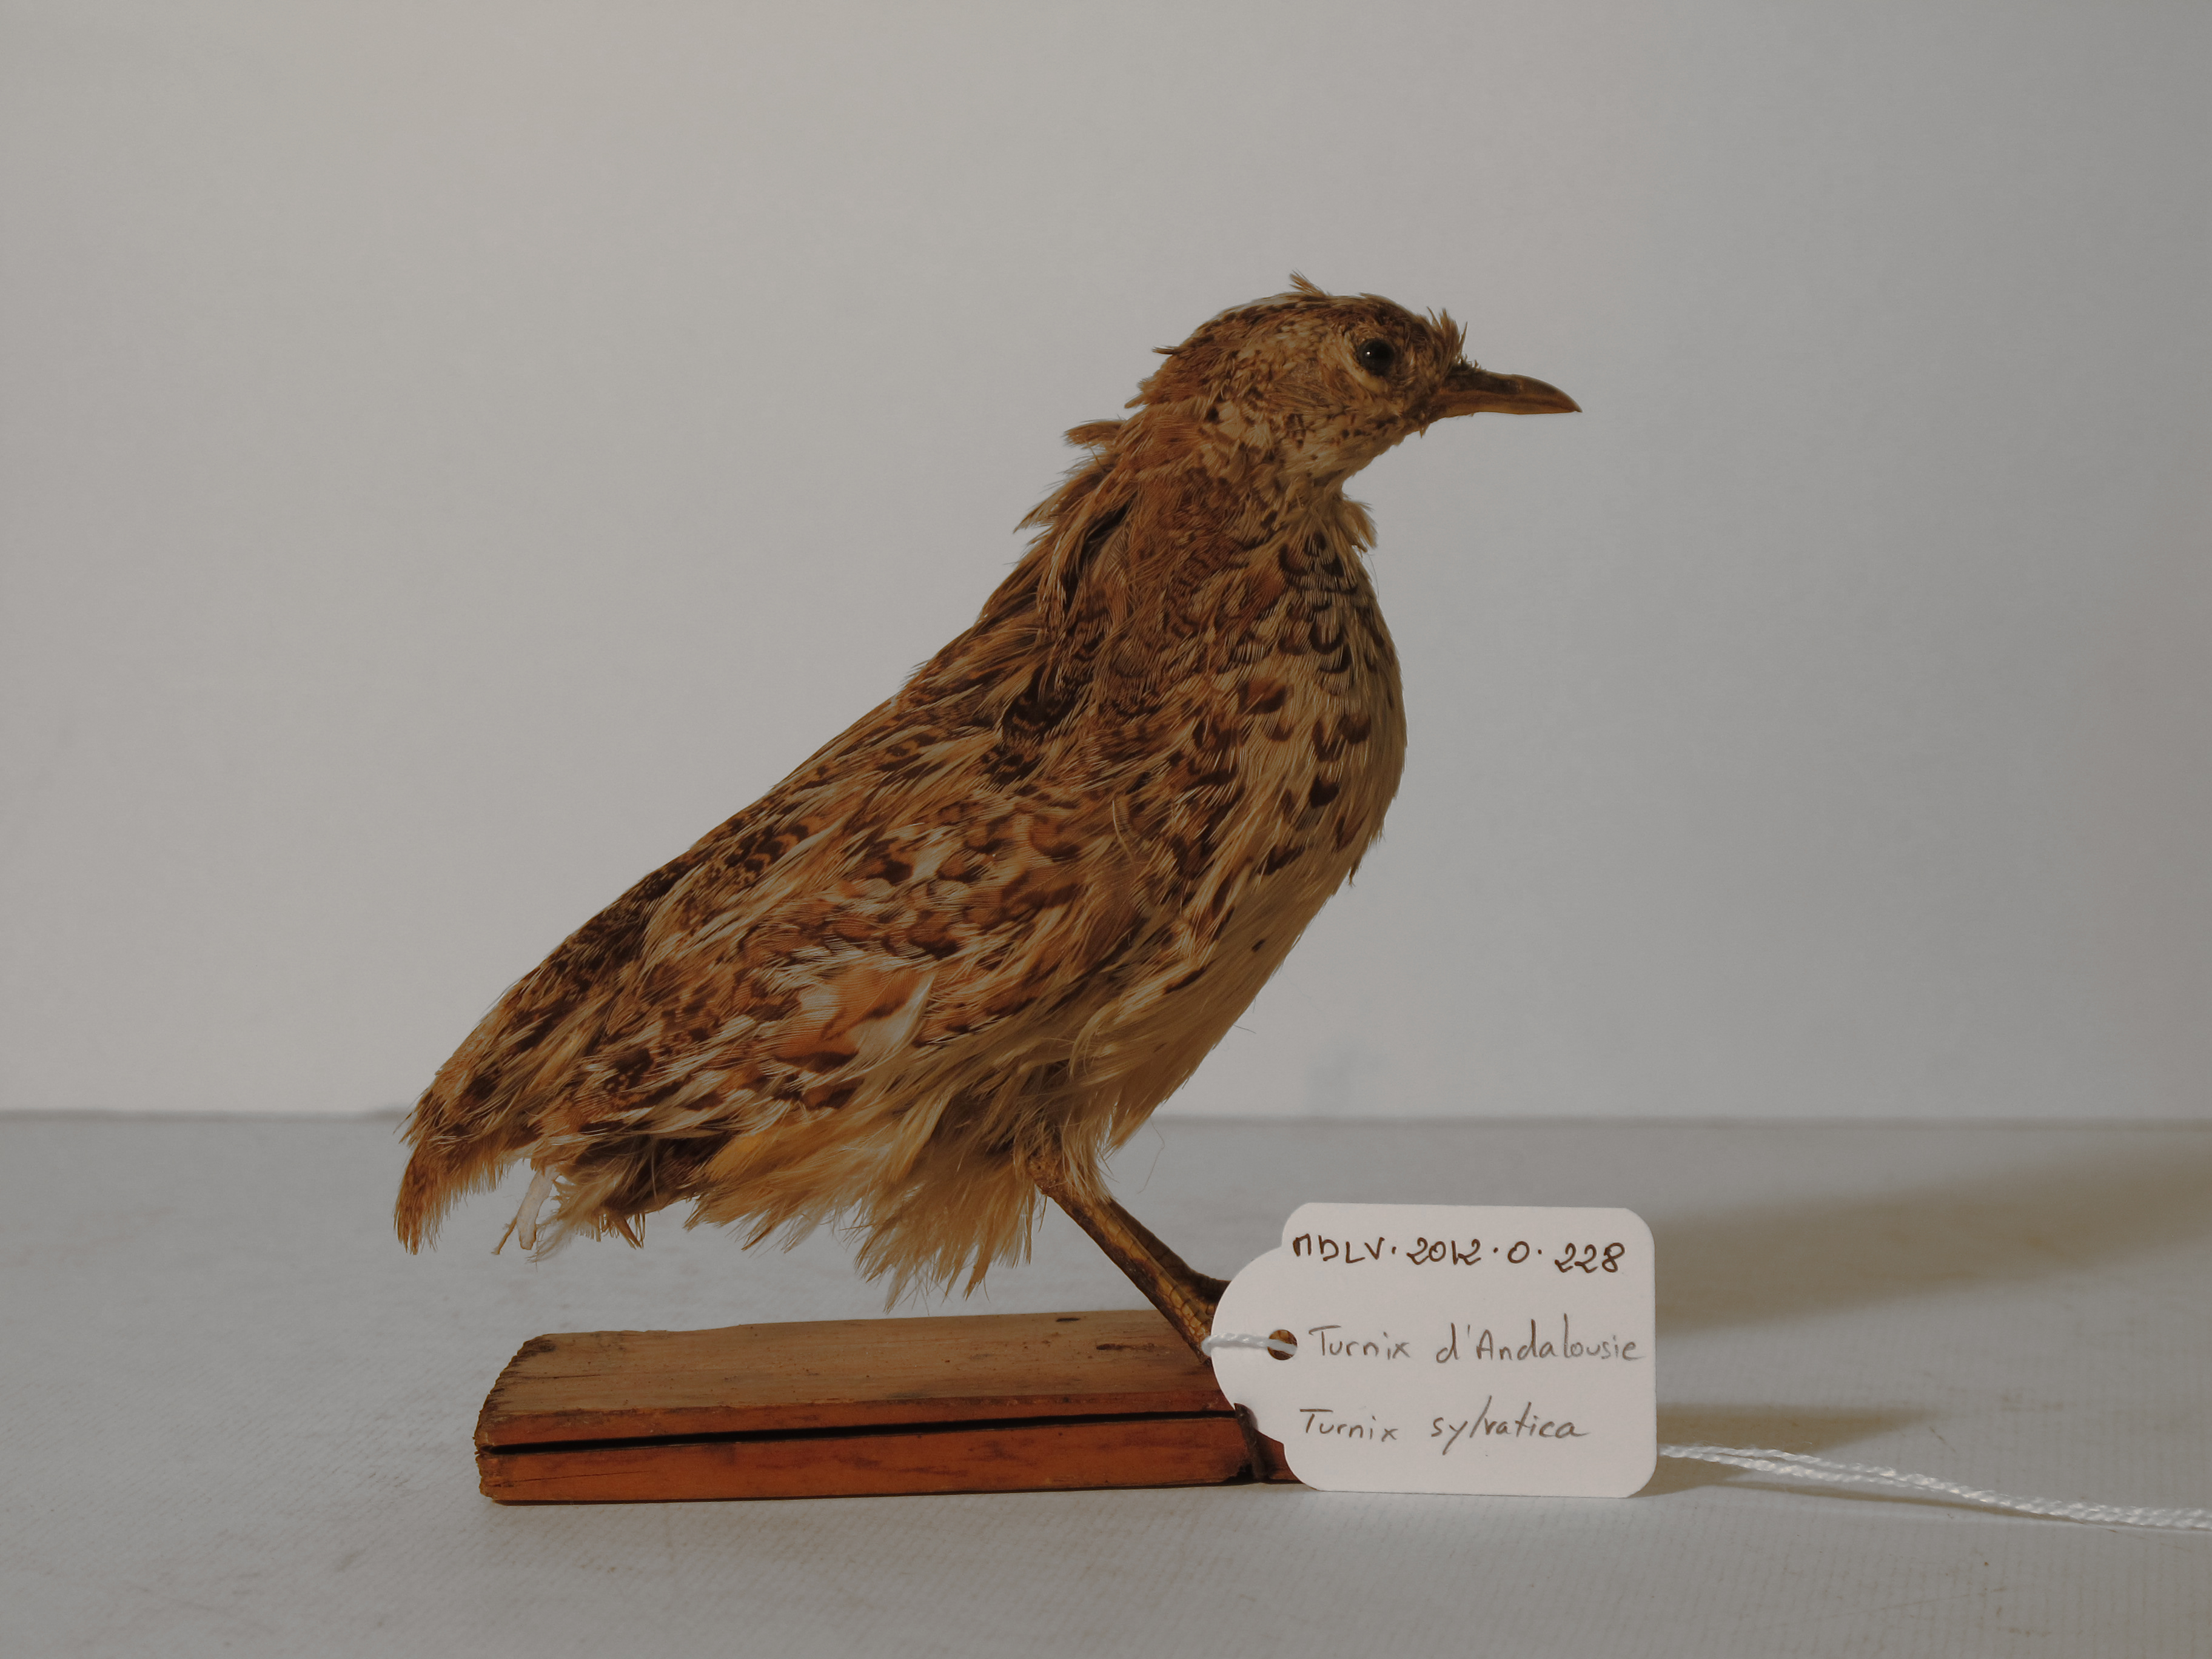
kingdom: Animalia
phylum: Chordata
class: Aves
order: Charadriiformes
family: Turnicidae
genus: Turnix
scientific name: Turnix sylvaticus
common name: Common Buttonquail
